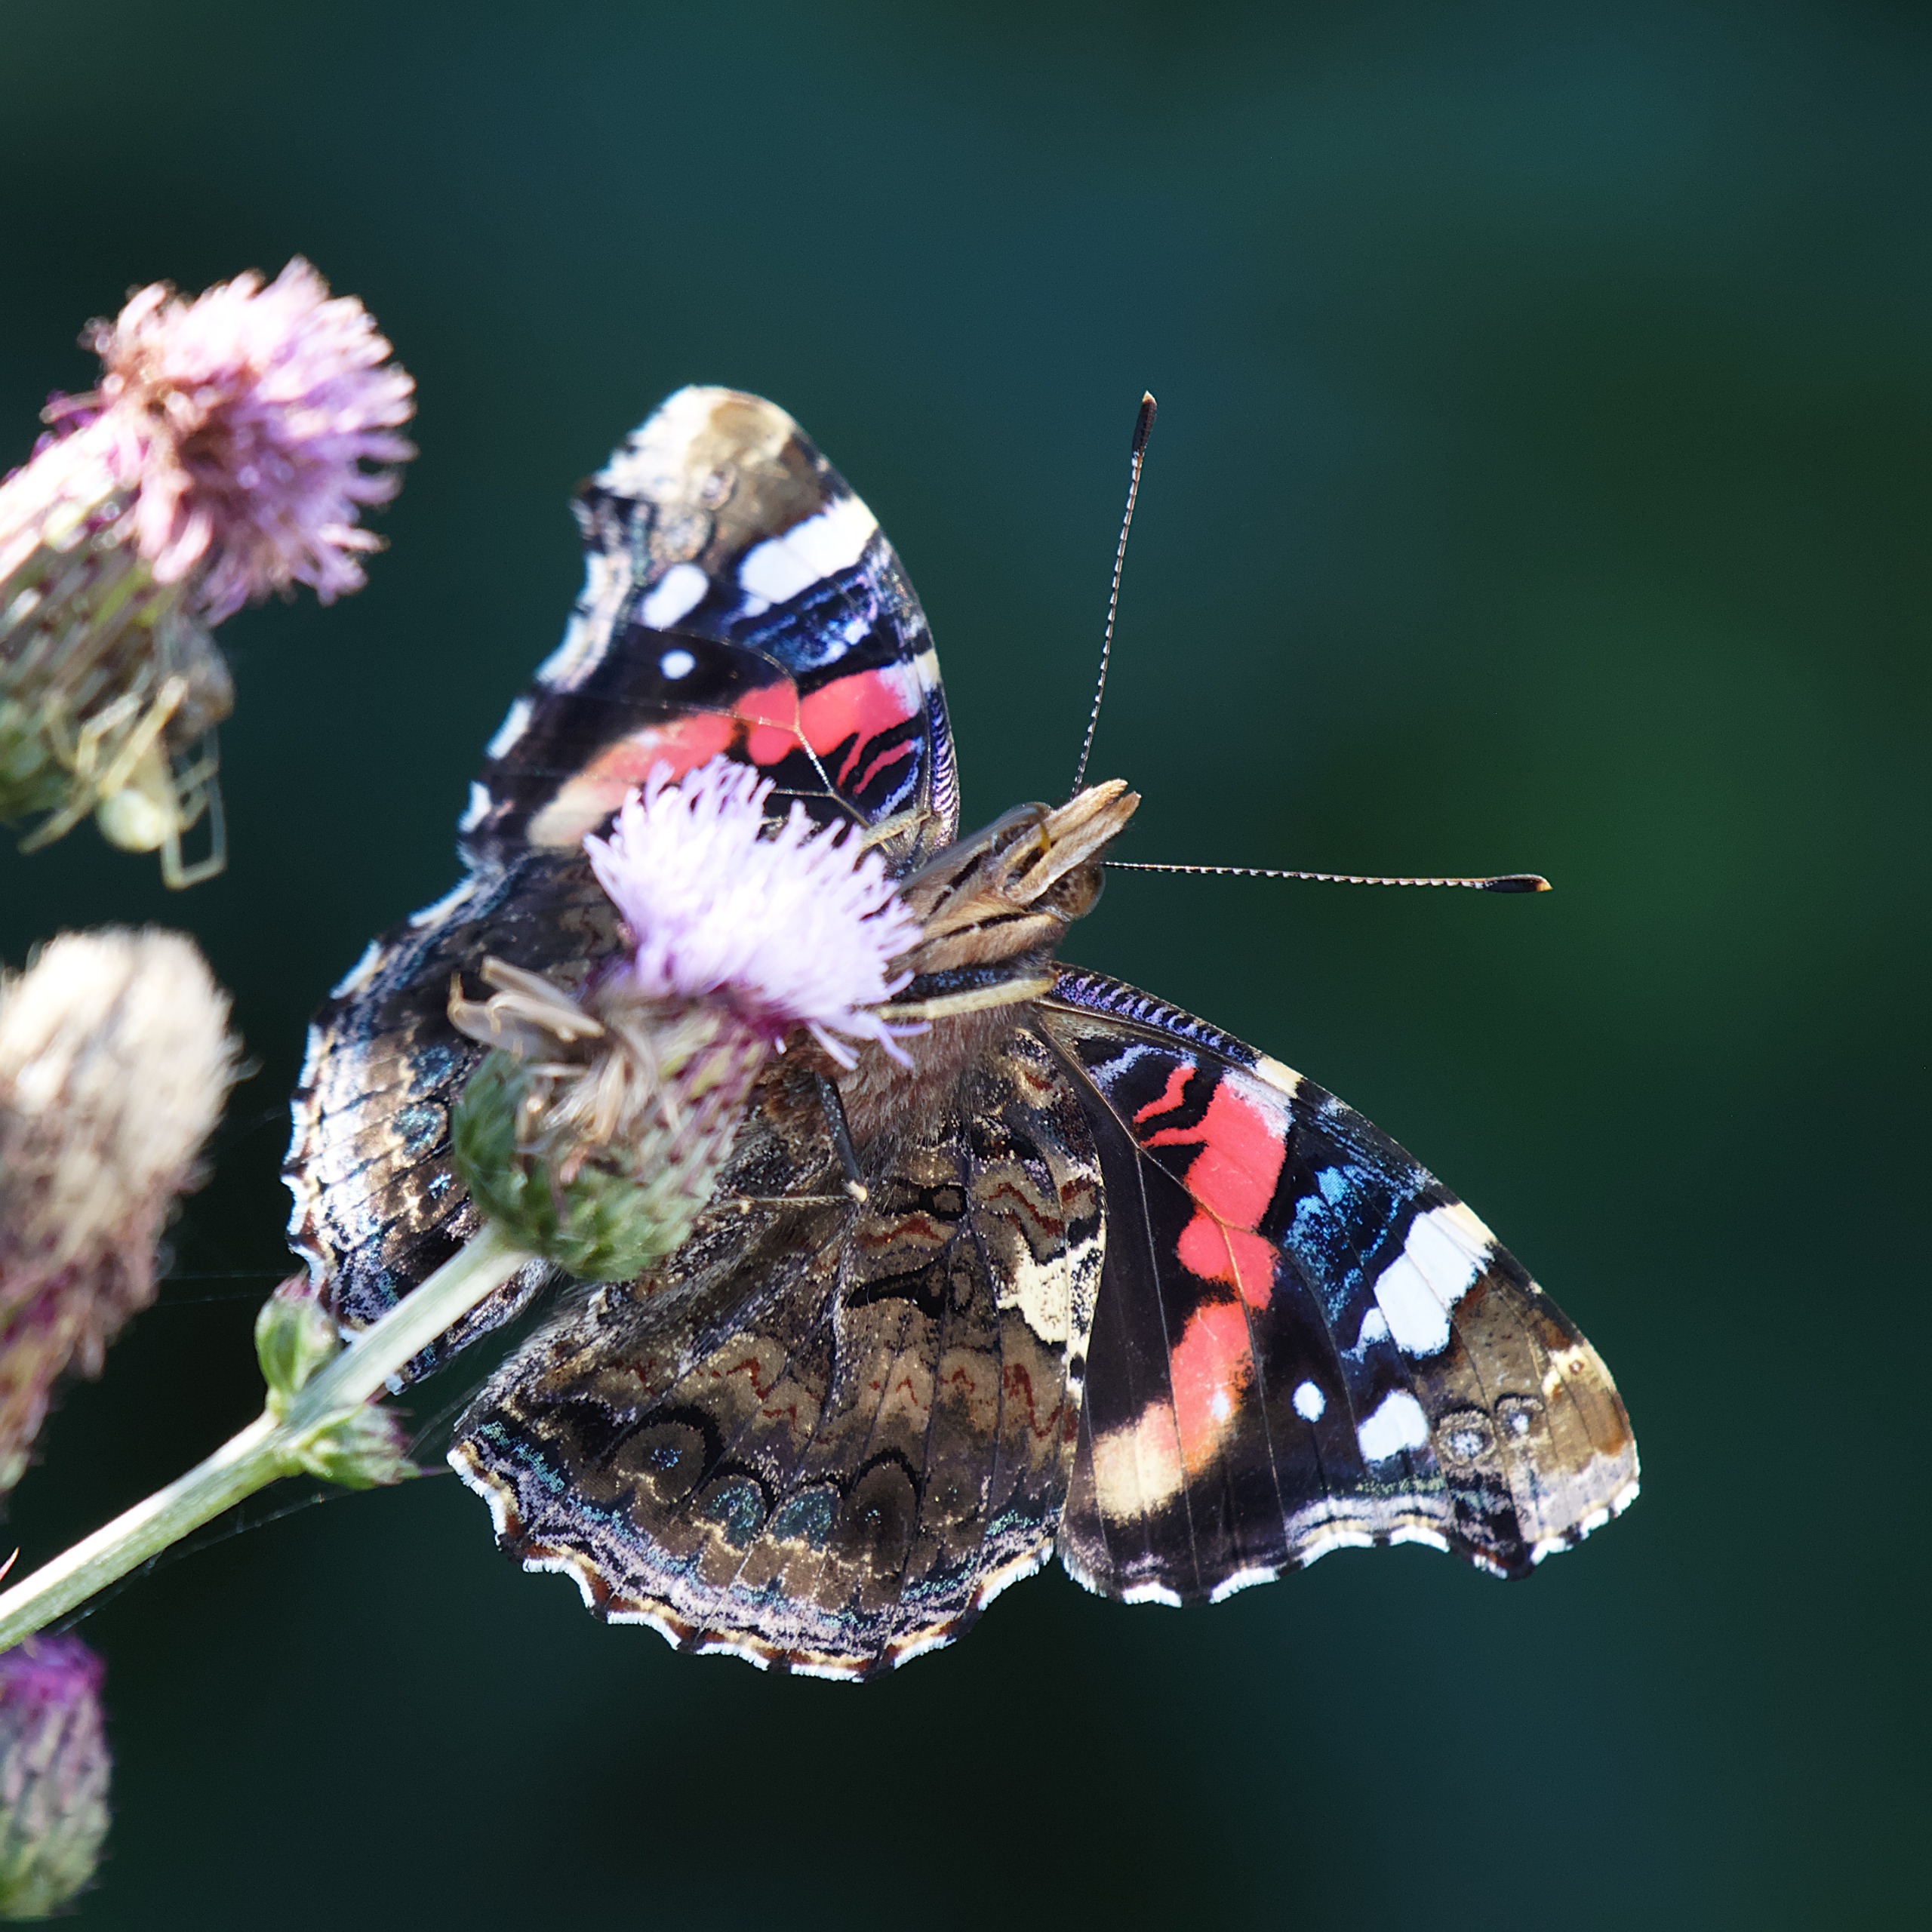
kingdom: Animalia
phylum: Arthropoda
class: Insecta
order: Lepidoptera
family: Nymphalidae
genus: Vanessa
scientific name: Vanessa atalanta
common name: Admiral
